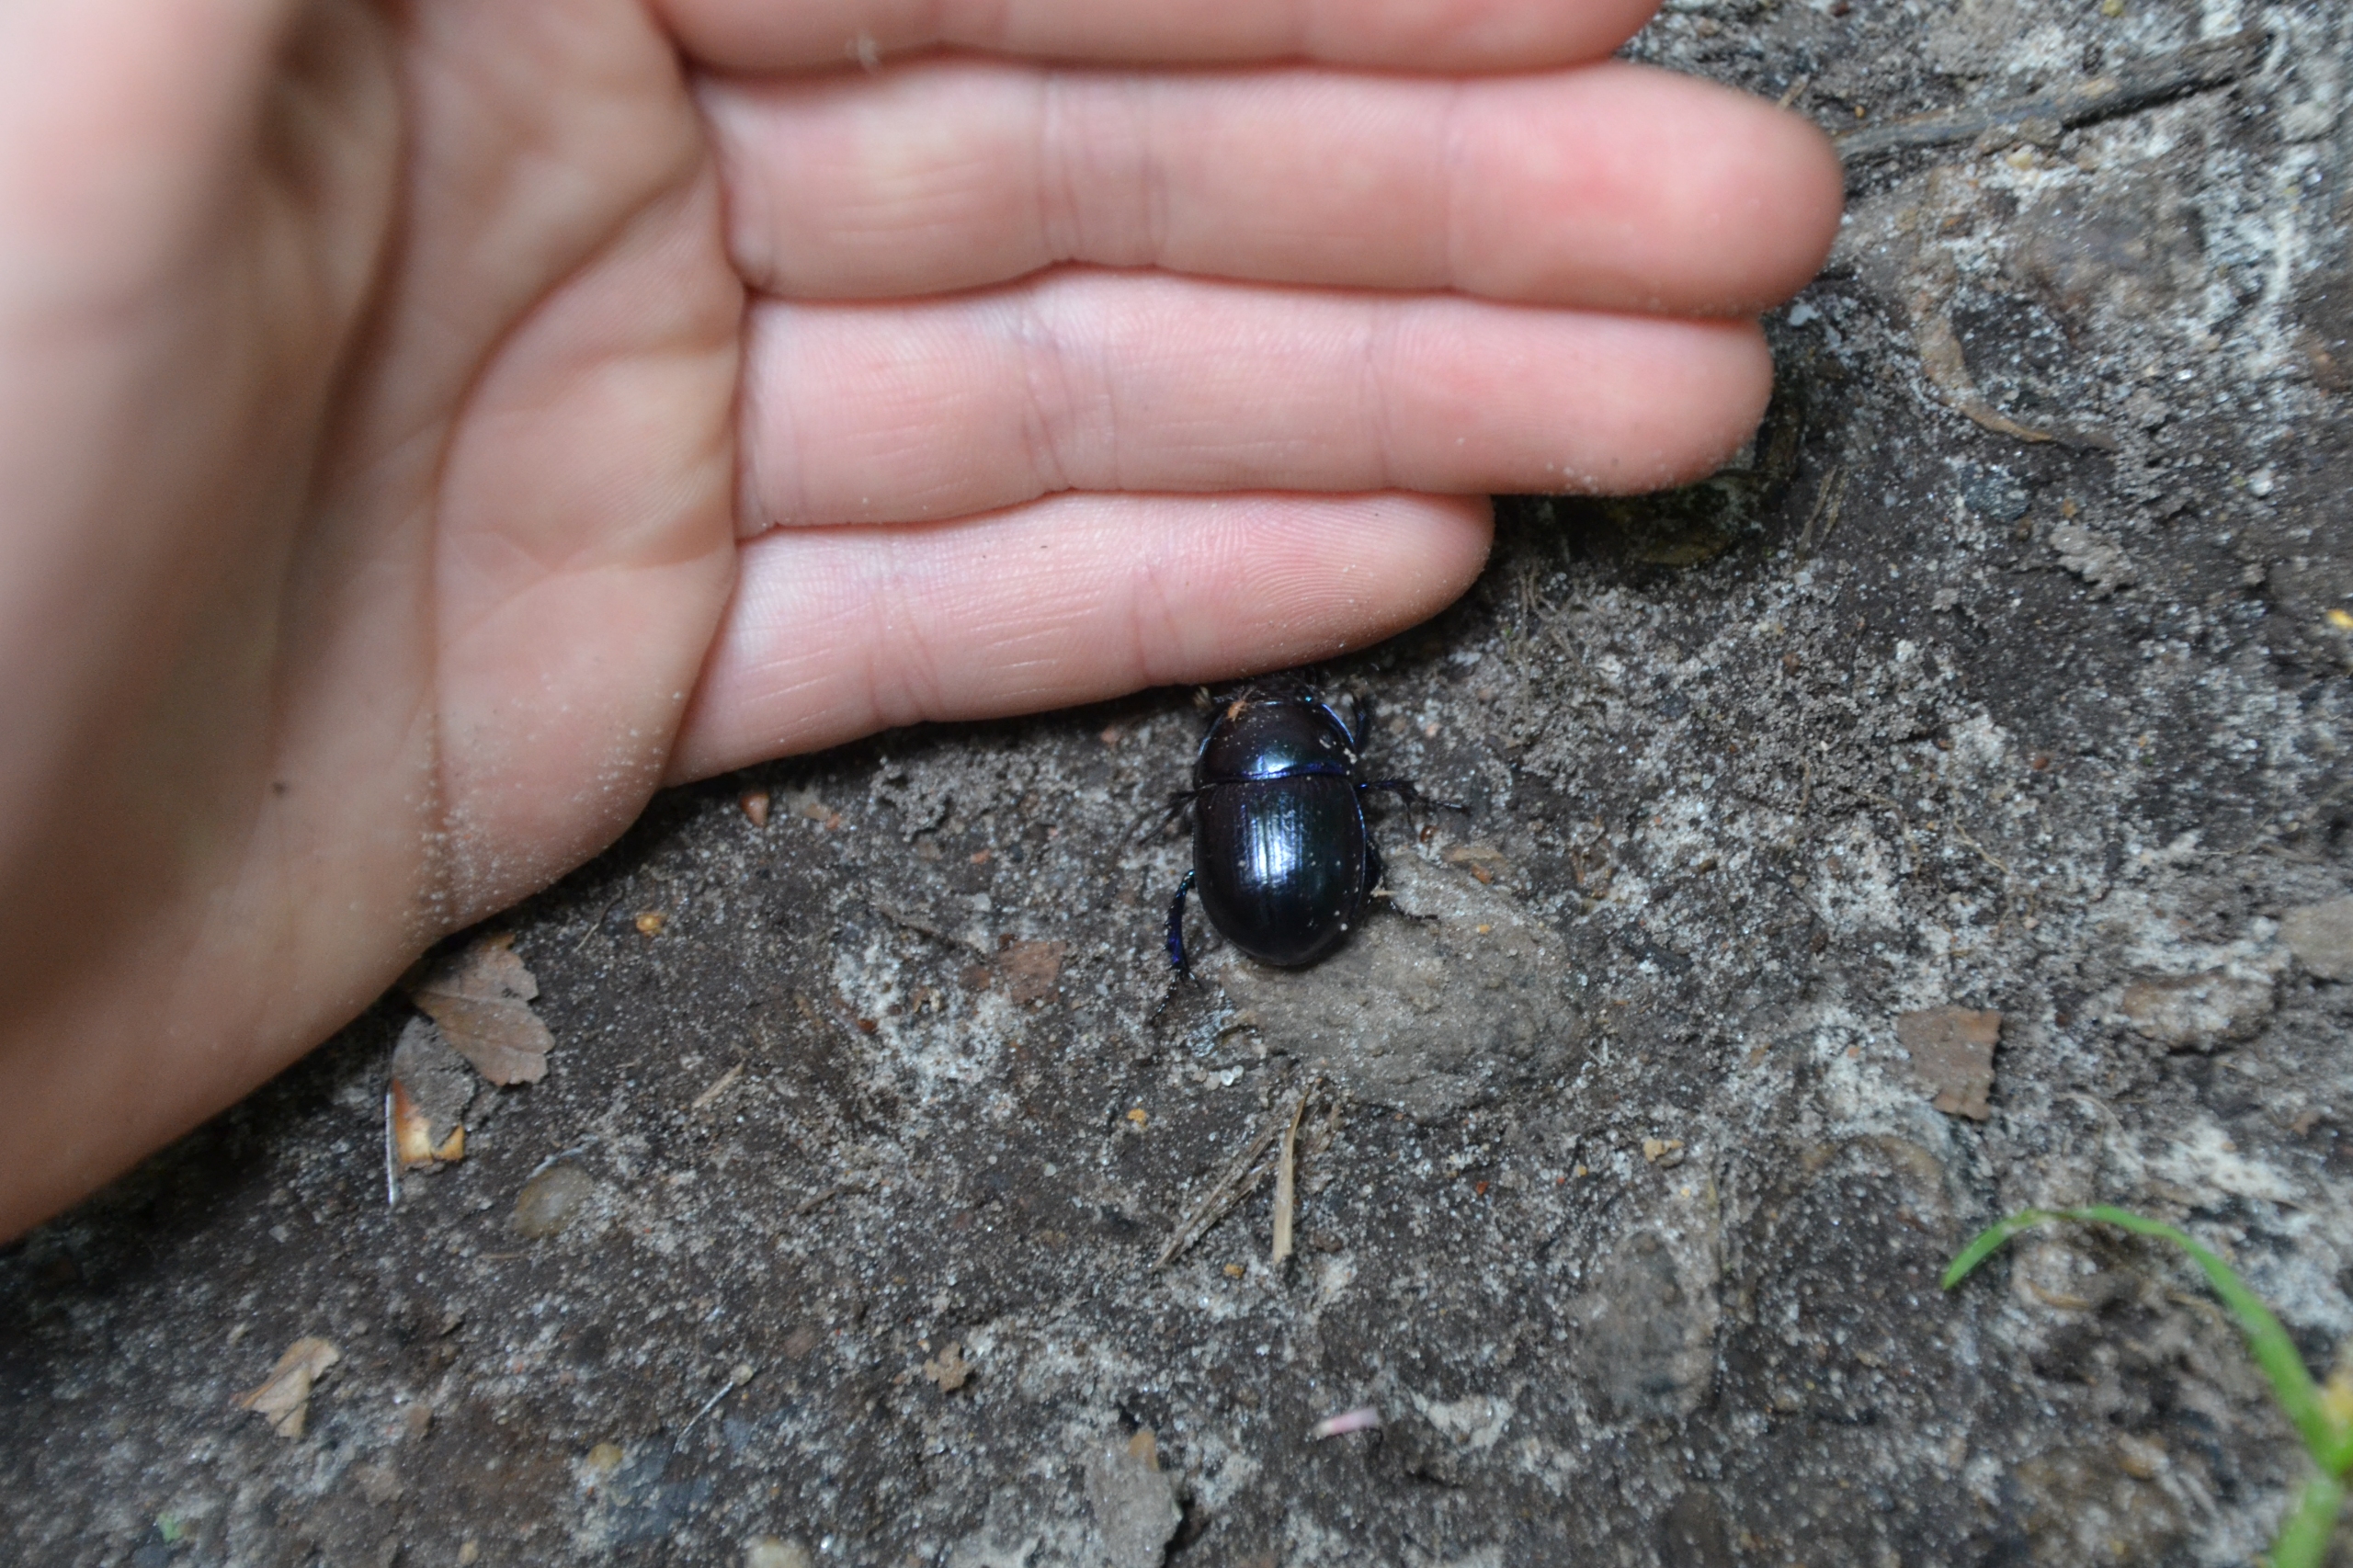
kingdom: Animalia
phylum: Arthropoda
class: Insecta
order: Coleoptera
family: Geotrupidae
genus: Anoplotrupes
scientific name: Anoplotrupes stercorosus
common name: Skovskarnbasse
